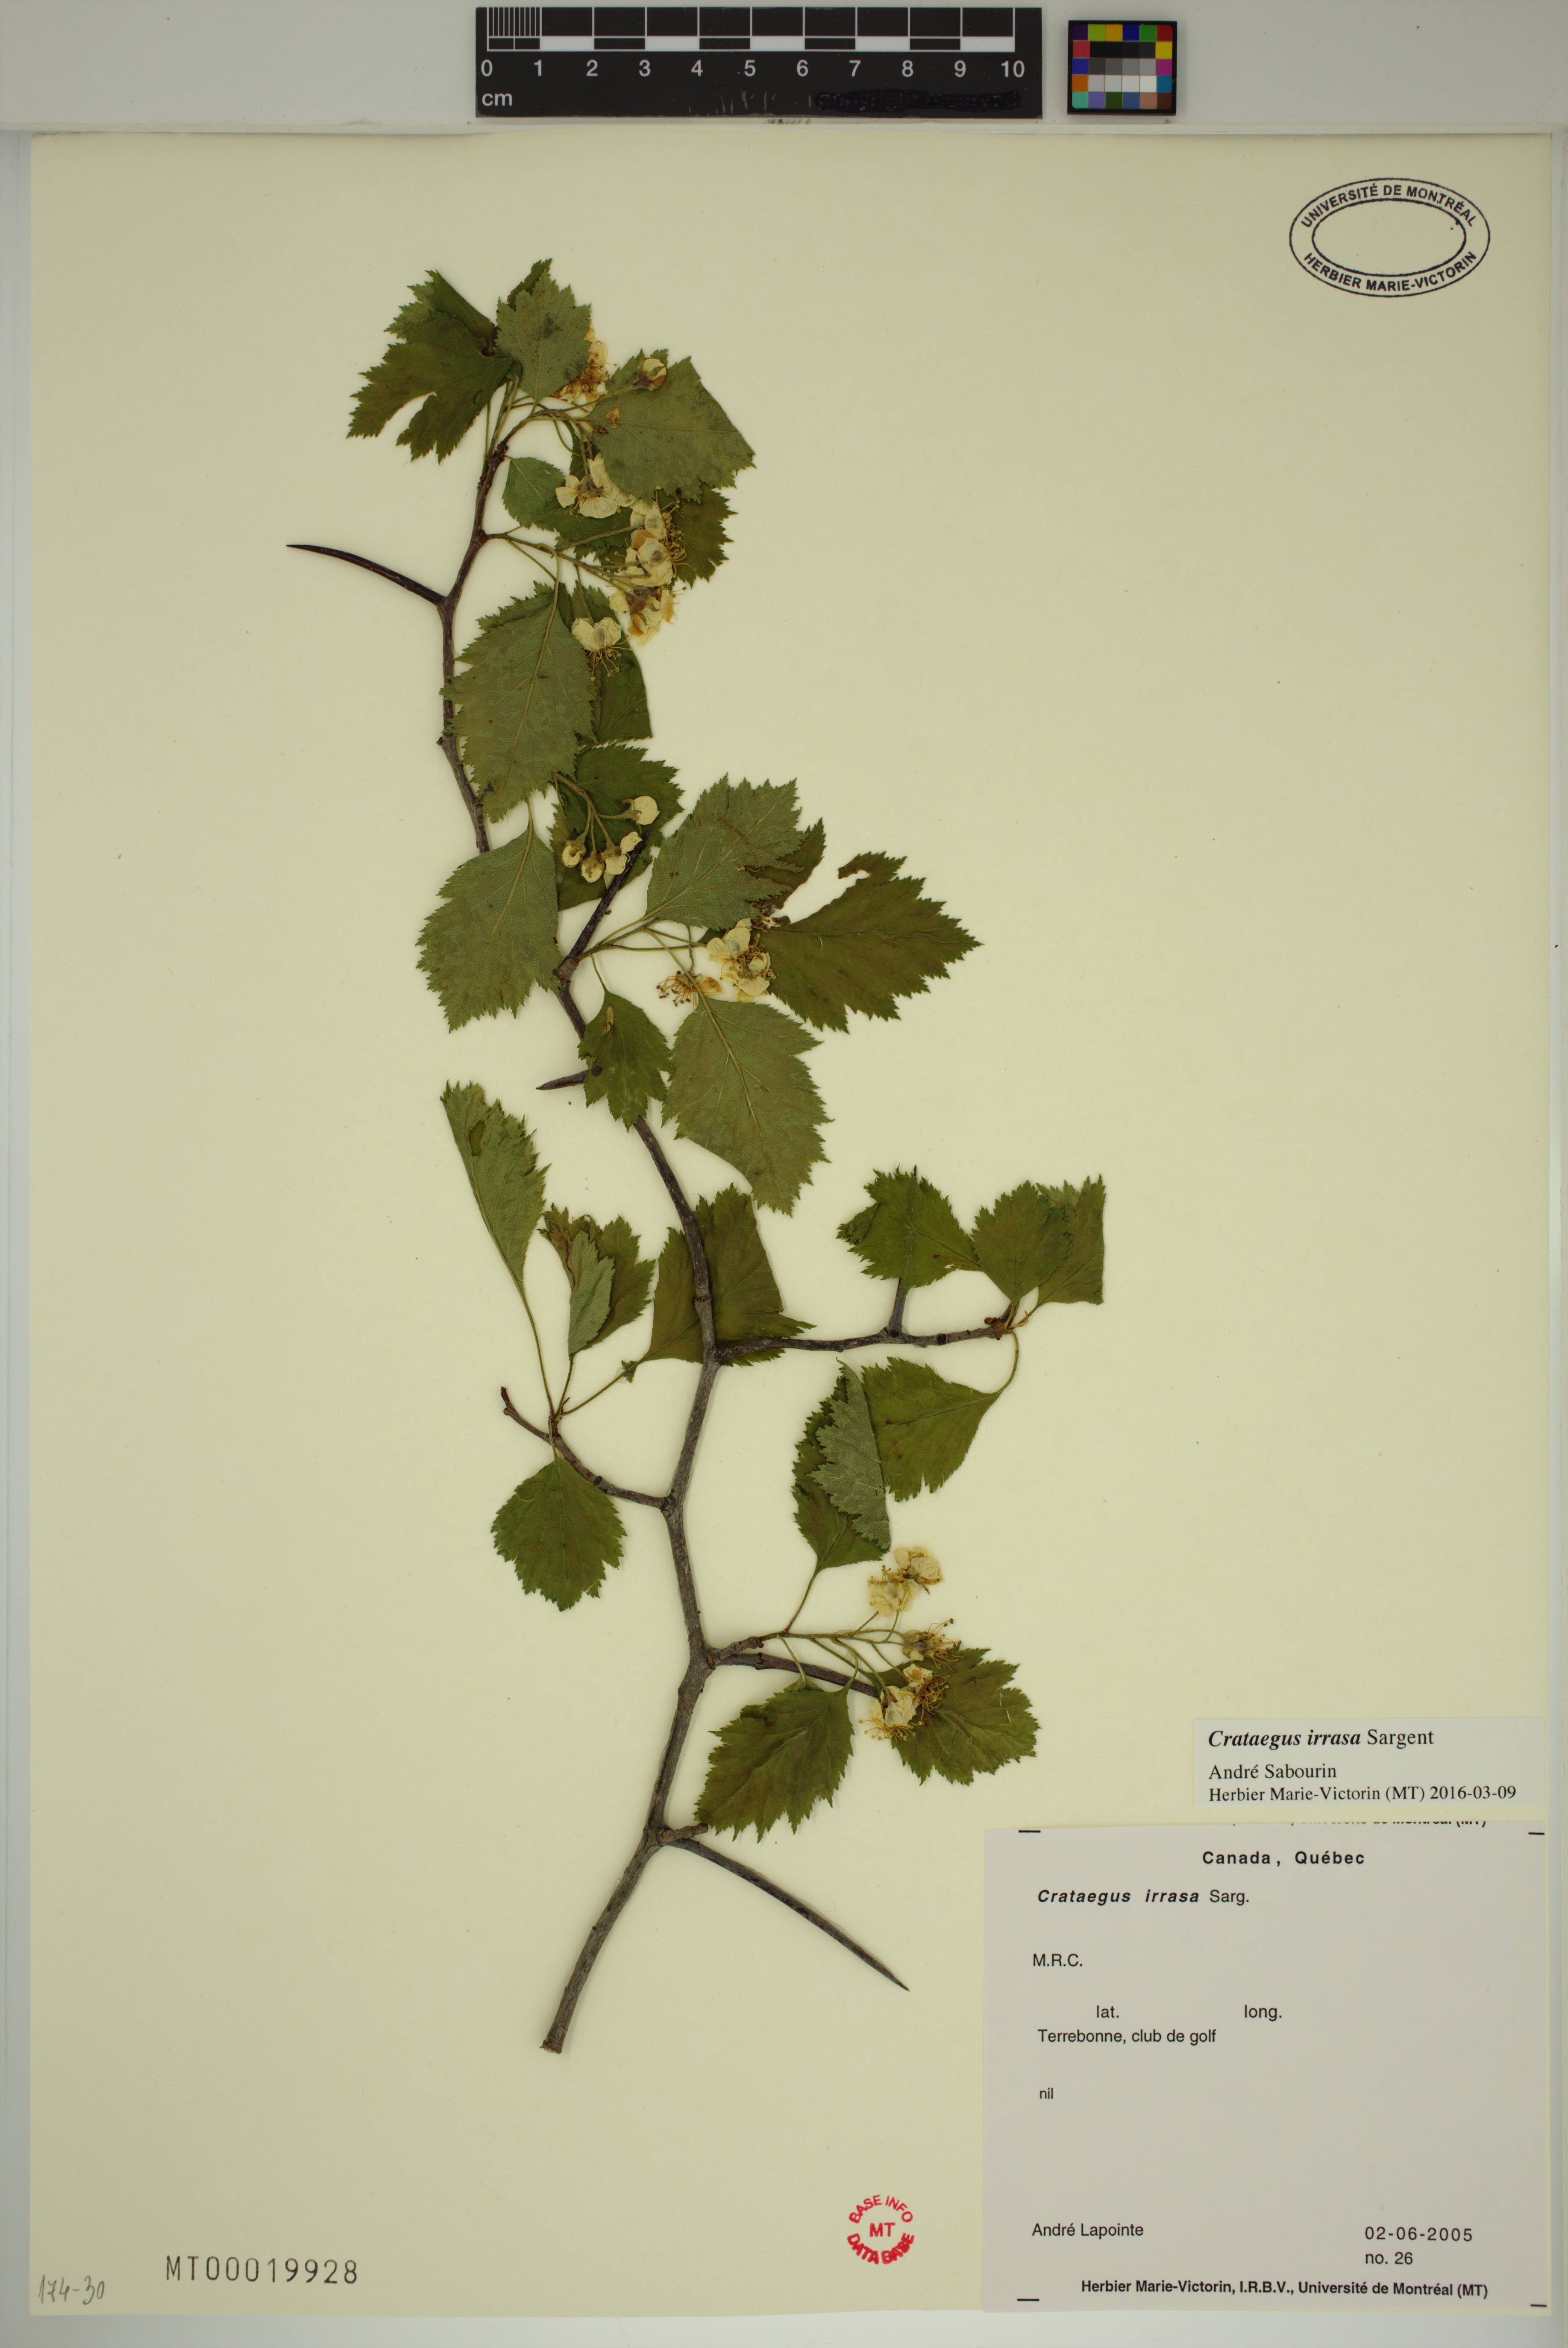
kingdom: Plantae
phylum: Tracheophyta
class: Magnoliopsida
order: Rosales
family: Rosaceae
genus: Crataegus
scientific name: Crataegus irrasa
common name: Unshorn hawthorn
